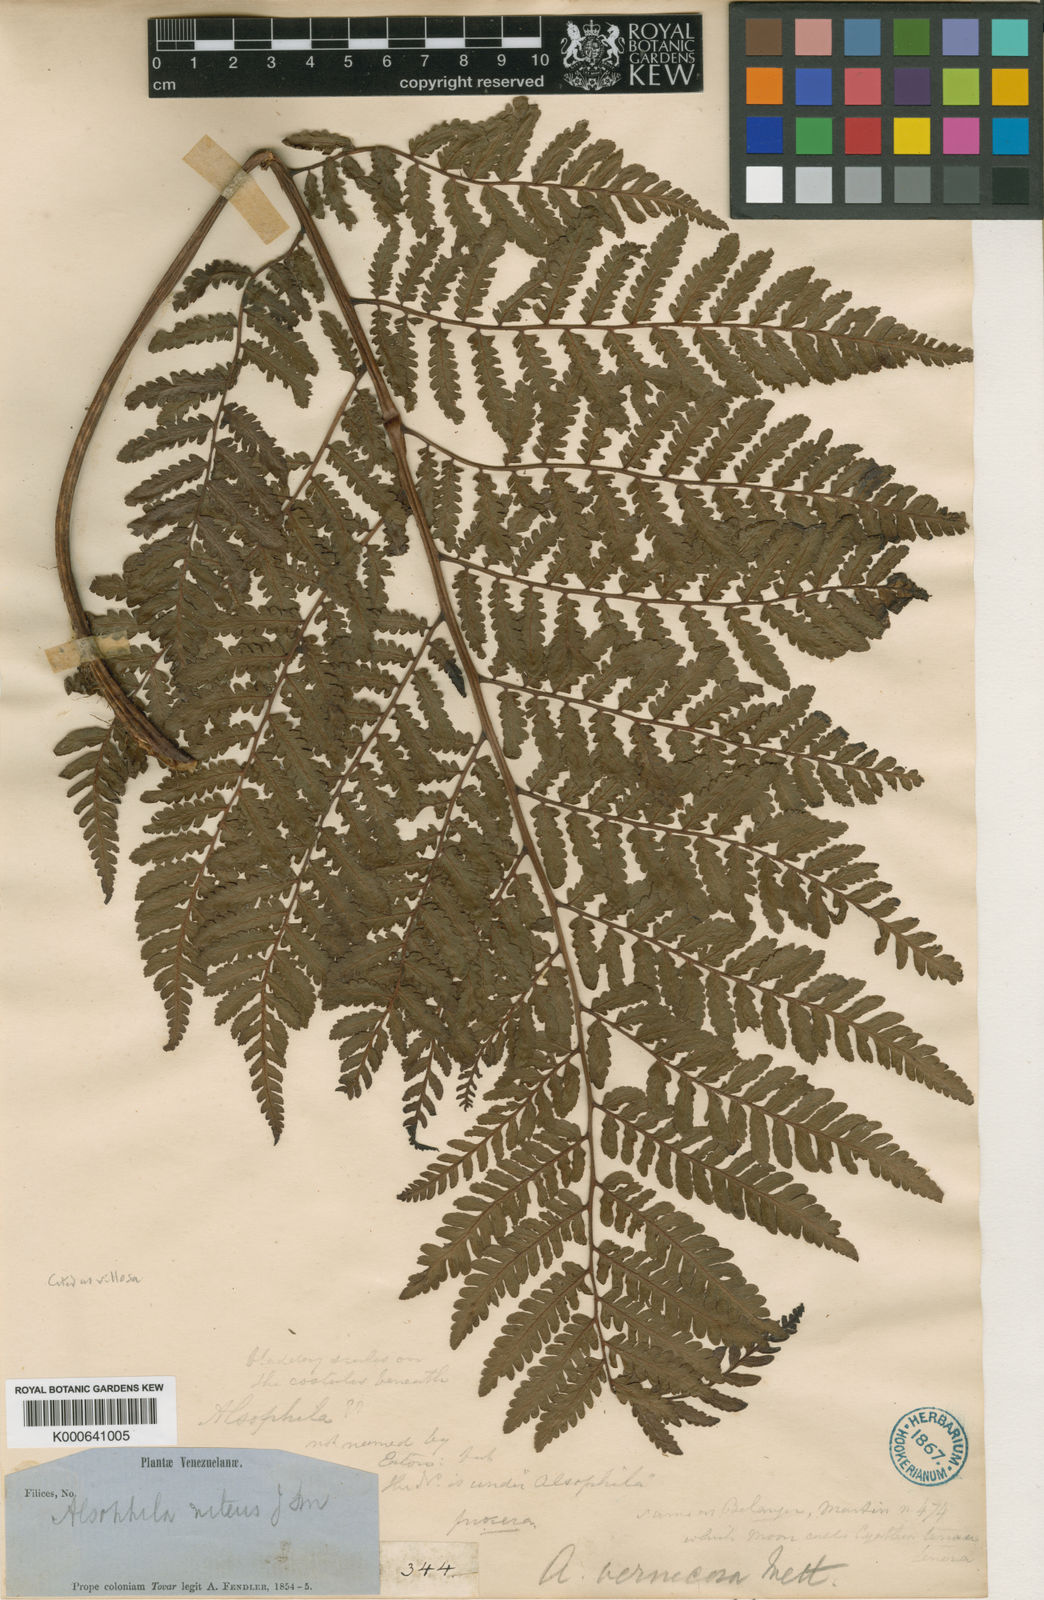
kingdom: Plantae
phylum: Tracheophyta
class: Polypodiopsida
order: Cyatheales
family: Cyatheaceae
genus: Cyathea
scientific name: Cyathea villosa
